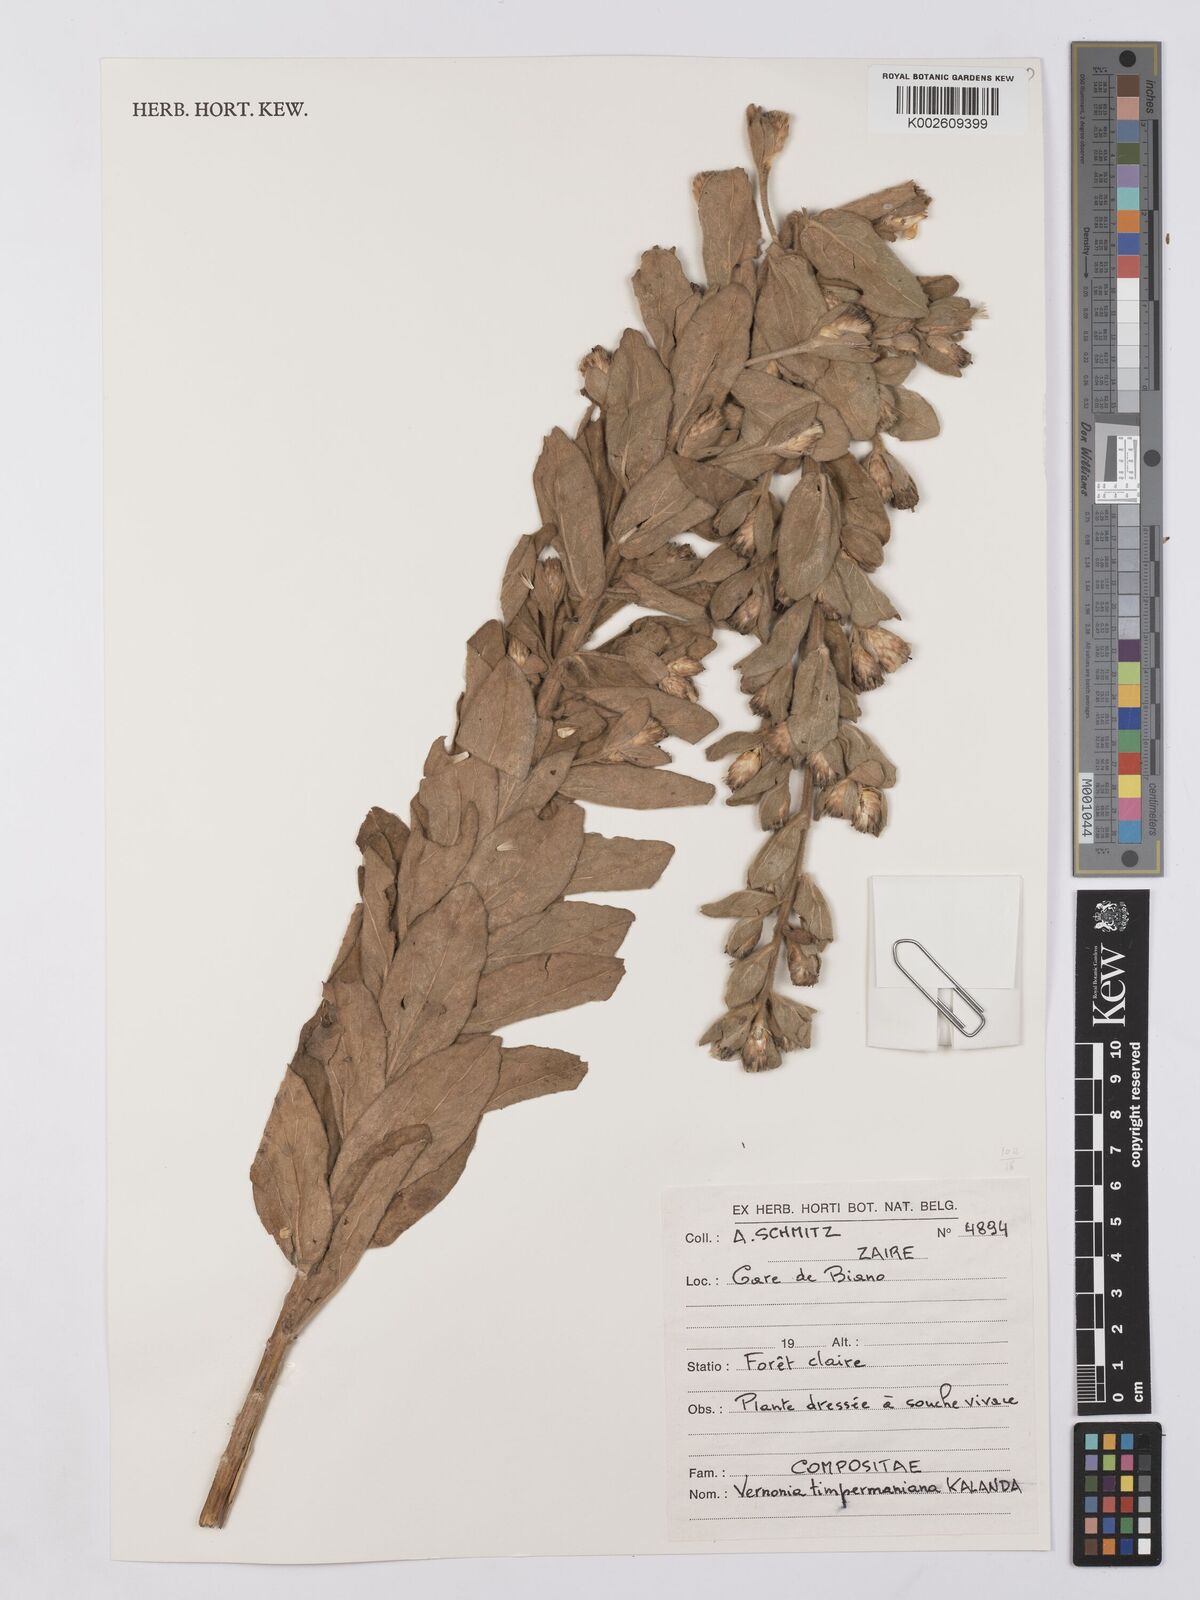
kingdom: Plantae
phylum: Tracheophyta
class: Magnoliopsida
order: Asterales
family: Asteraceae
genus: Vernonia
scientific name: Vernonia timpermaniana
